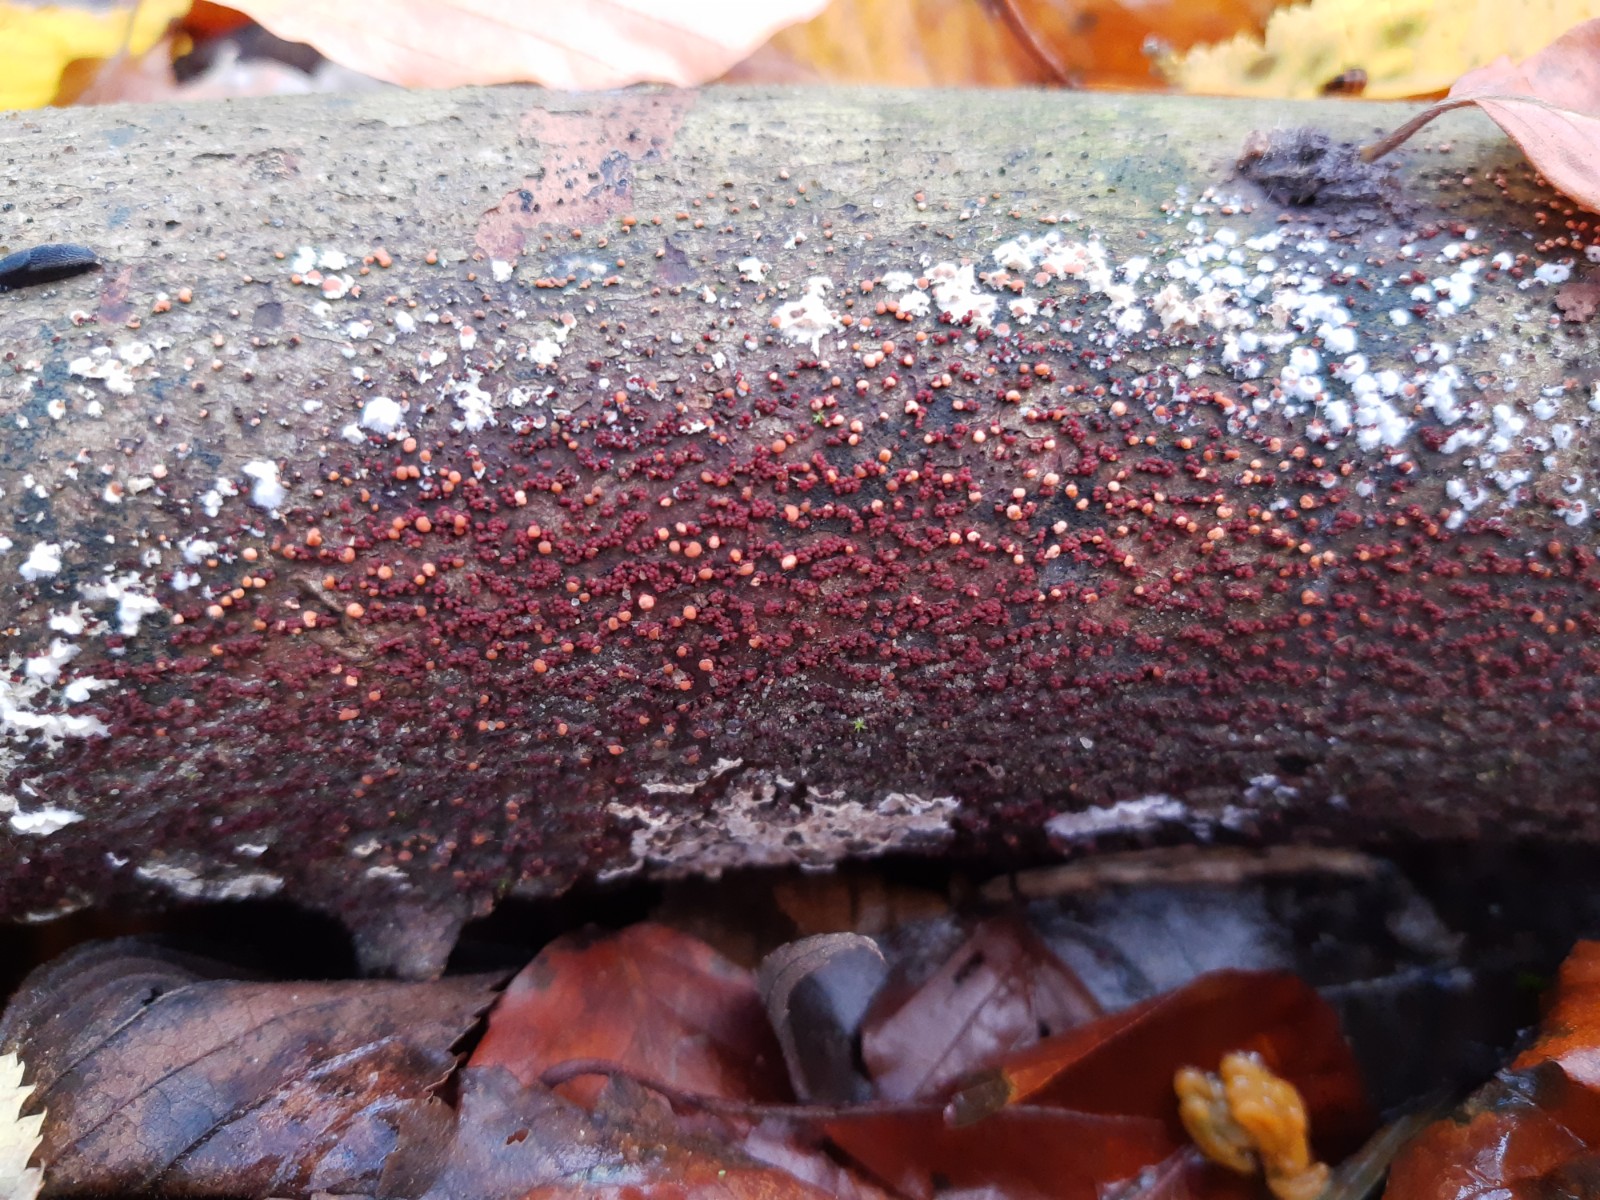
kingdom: Fungi
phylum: Ascomycota
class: Sordariomycetes
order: Hypocreales
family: Nectriaceae
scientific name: Nectriaceae
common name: cinnobersvampfamilien
